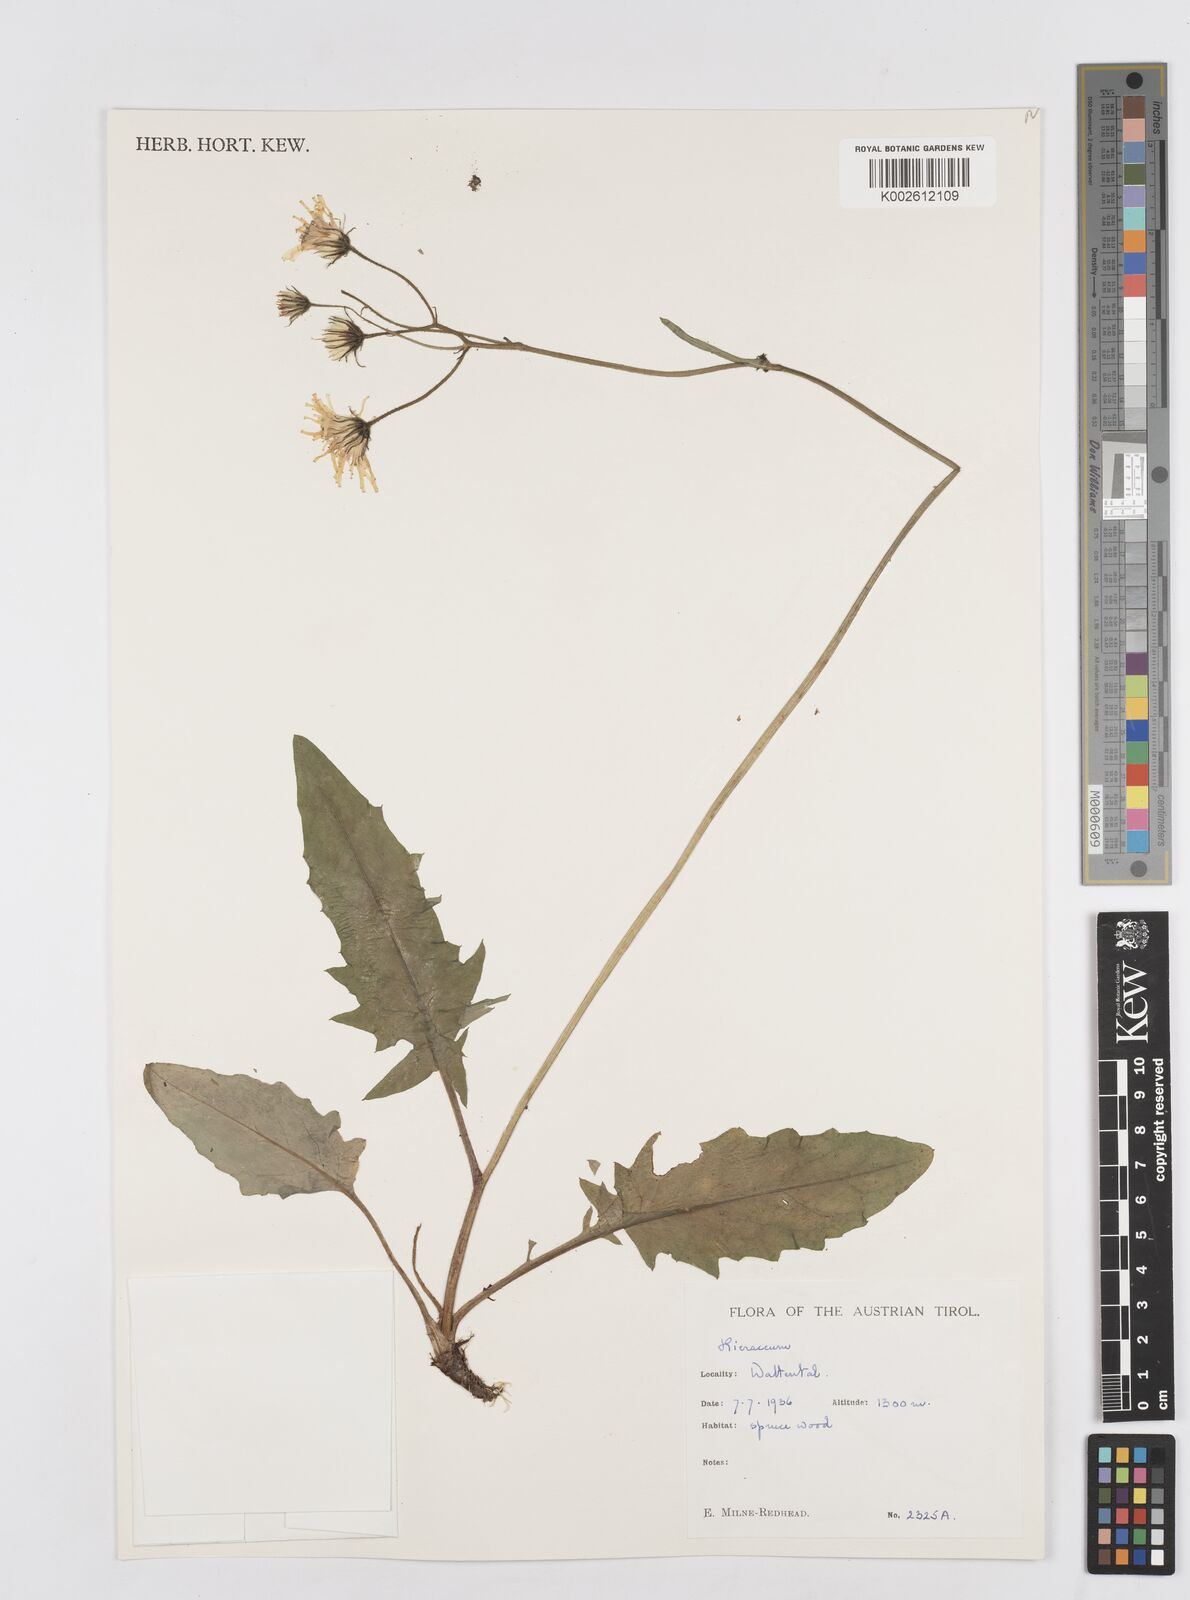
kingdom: Plantae
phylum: Tracheophyta
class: Magnoliopsida
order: Asterales
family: Asteraceae
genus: Hieracium
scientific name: Hieracium
